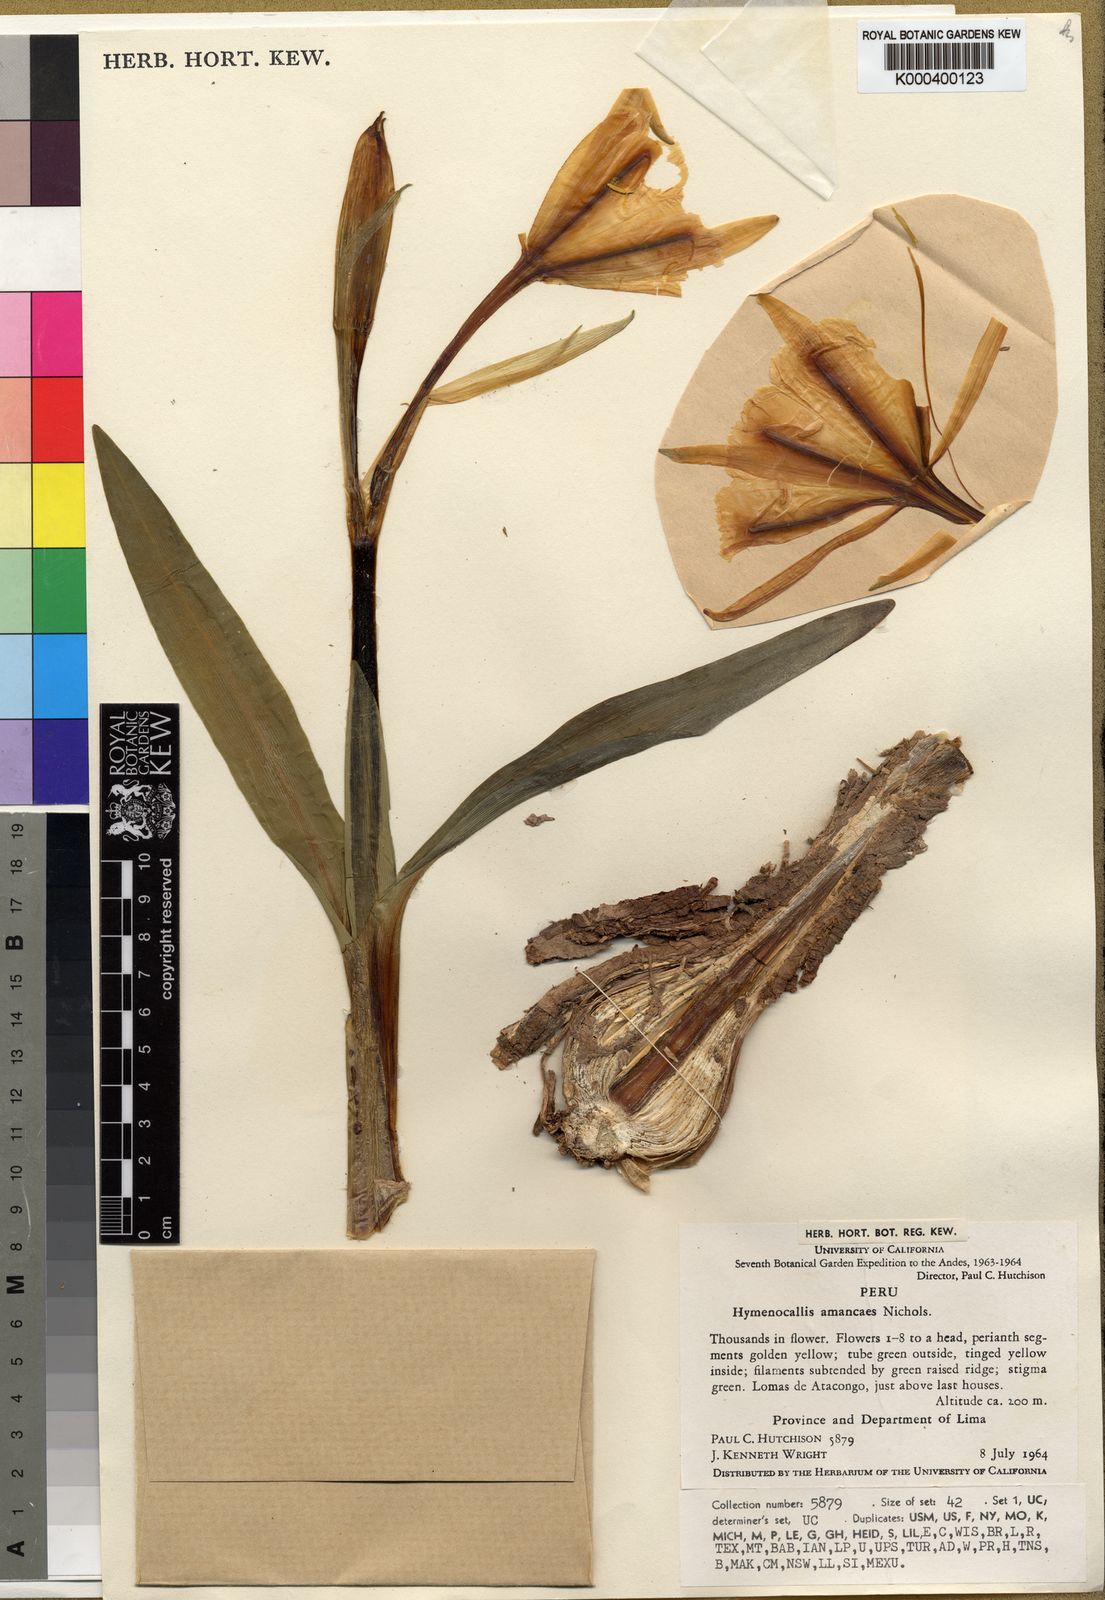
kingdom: Plantae
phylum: Tracheophyta
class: Liliopsida
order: Asparagales
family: Amaryllidaceae
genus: Ismene
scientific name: Ismene amancaes
